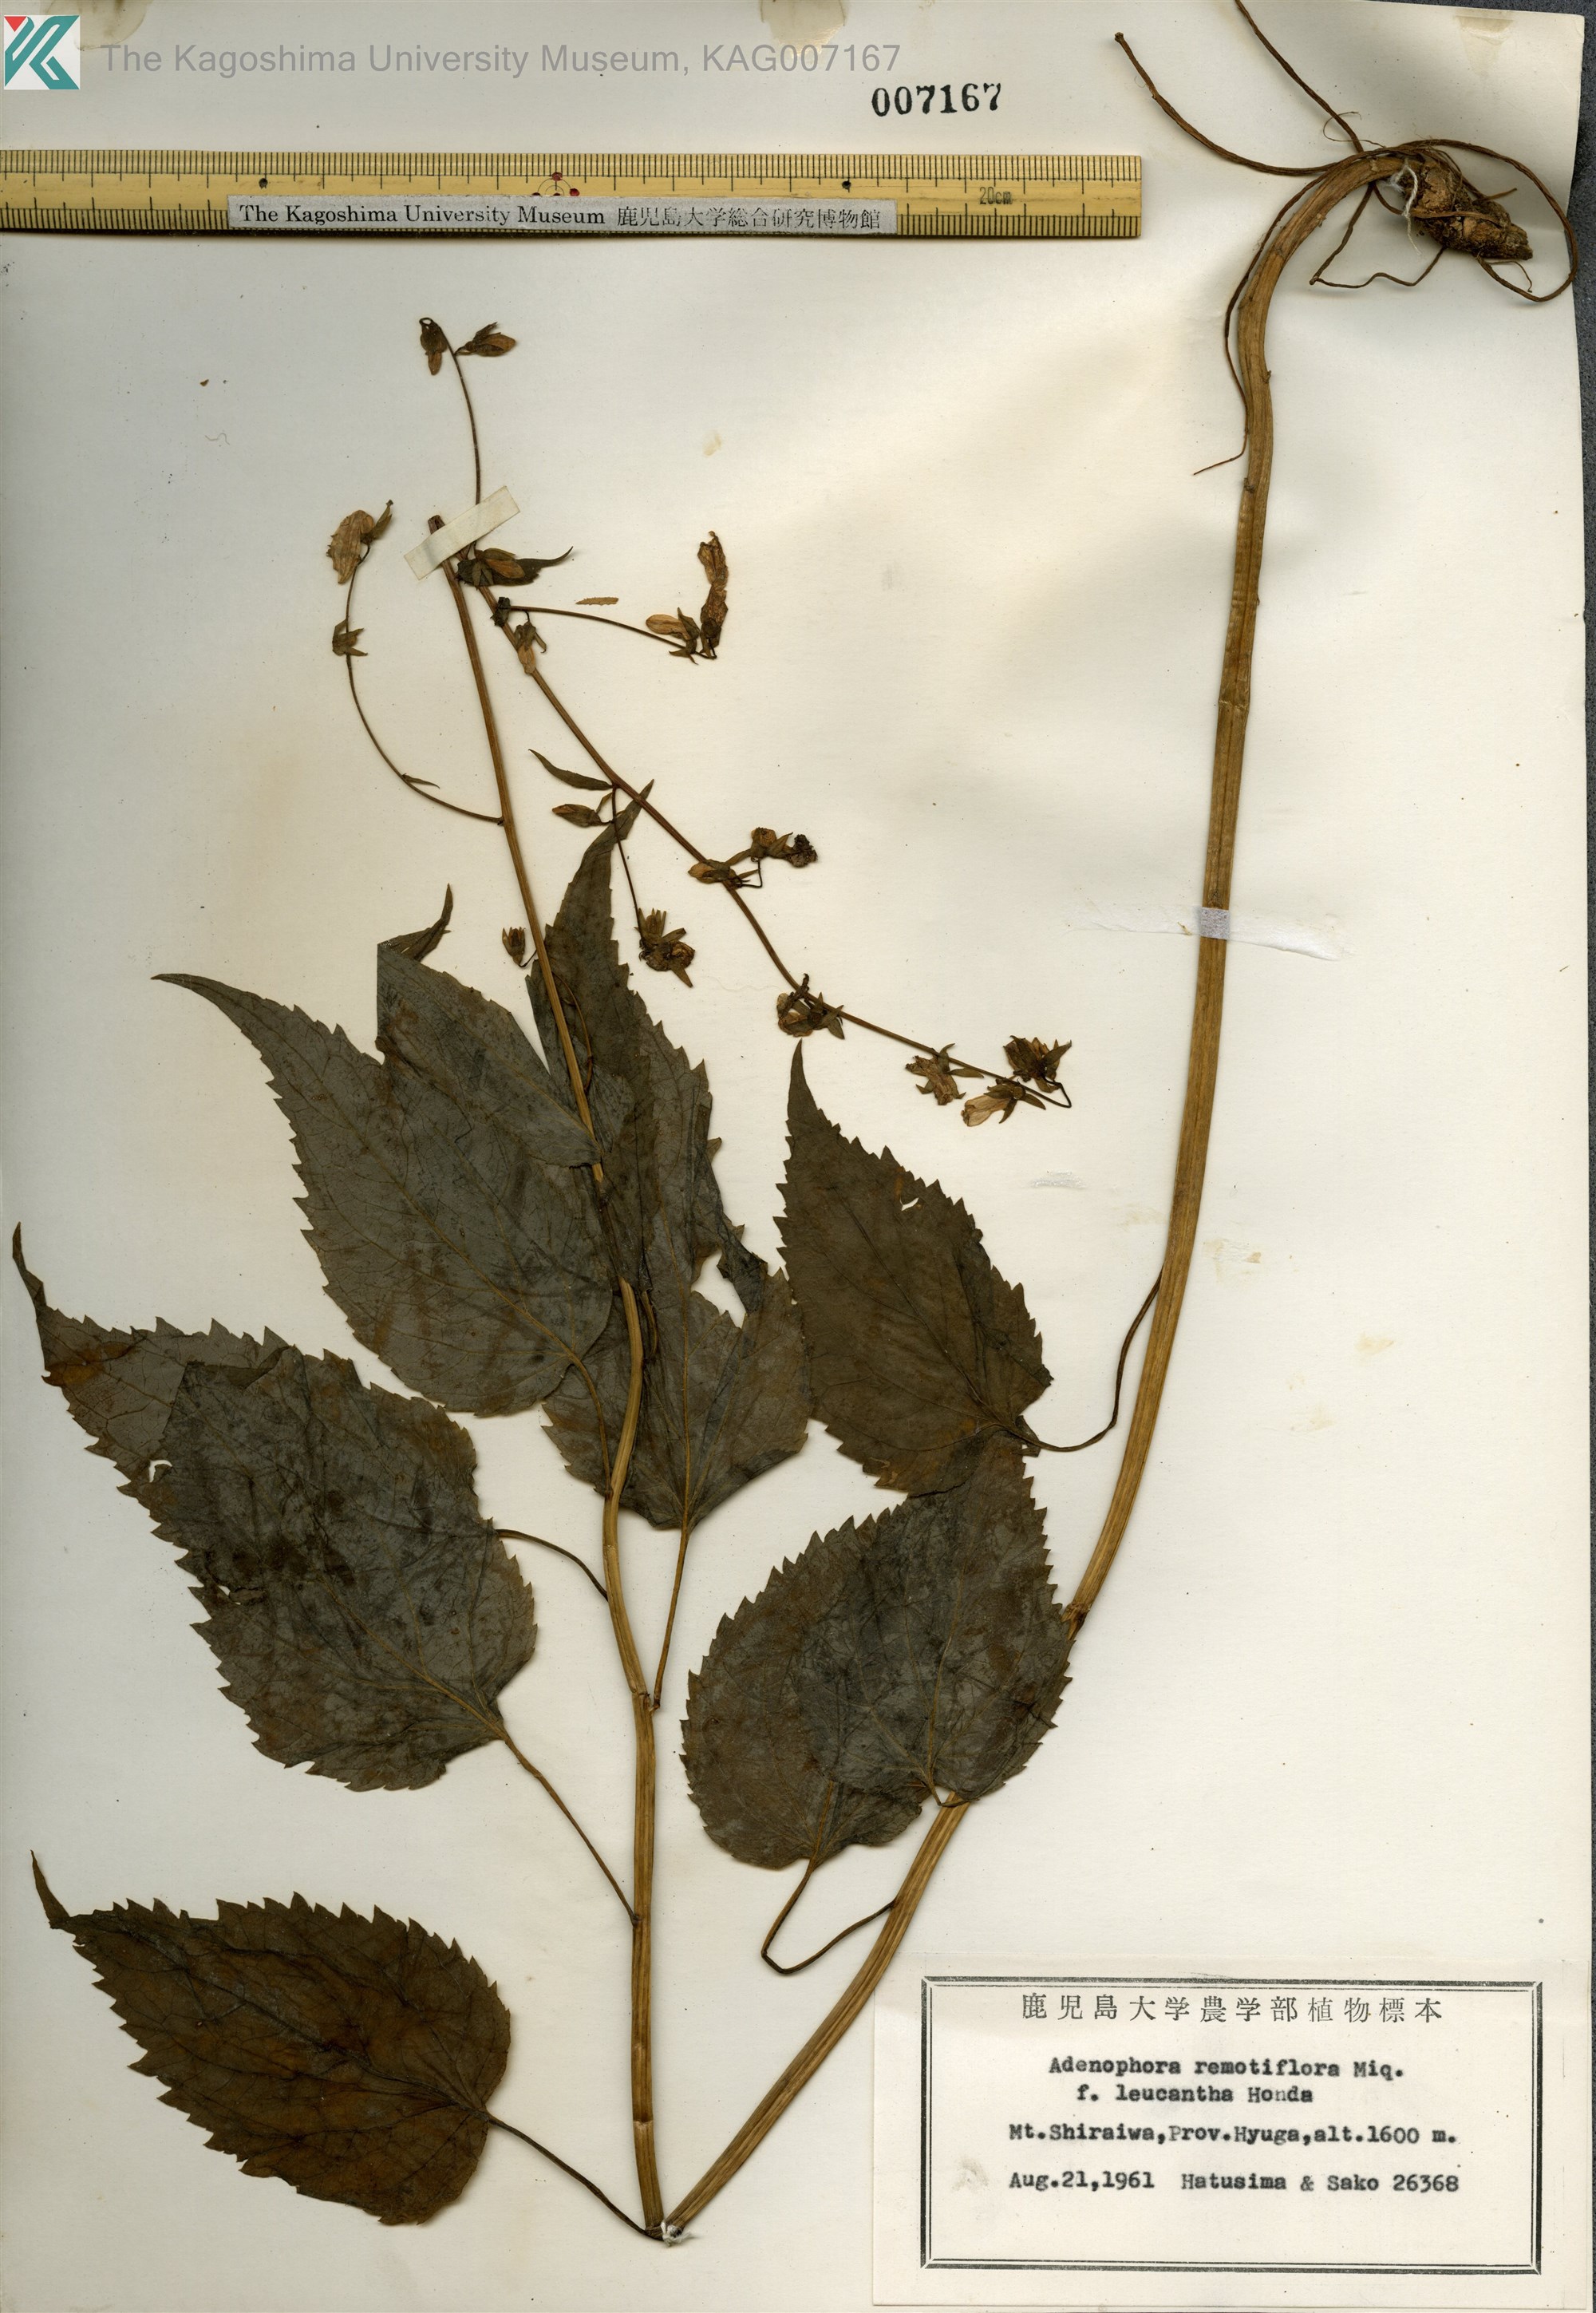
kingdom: Plantae
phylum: Tracheophyta
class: Magnoliopsida
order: Asterales
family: Campanulaceae
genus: Adenophora
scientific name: Adenophora remotiflora
